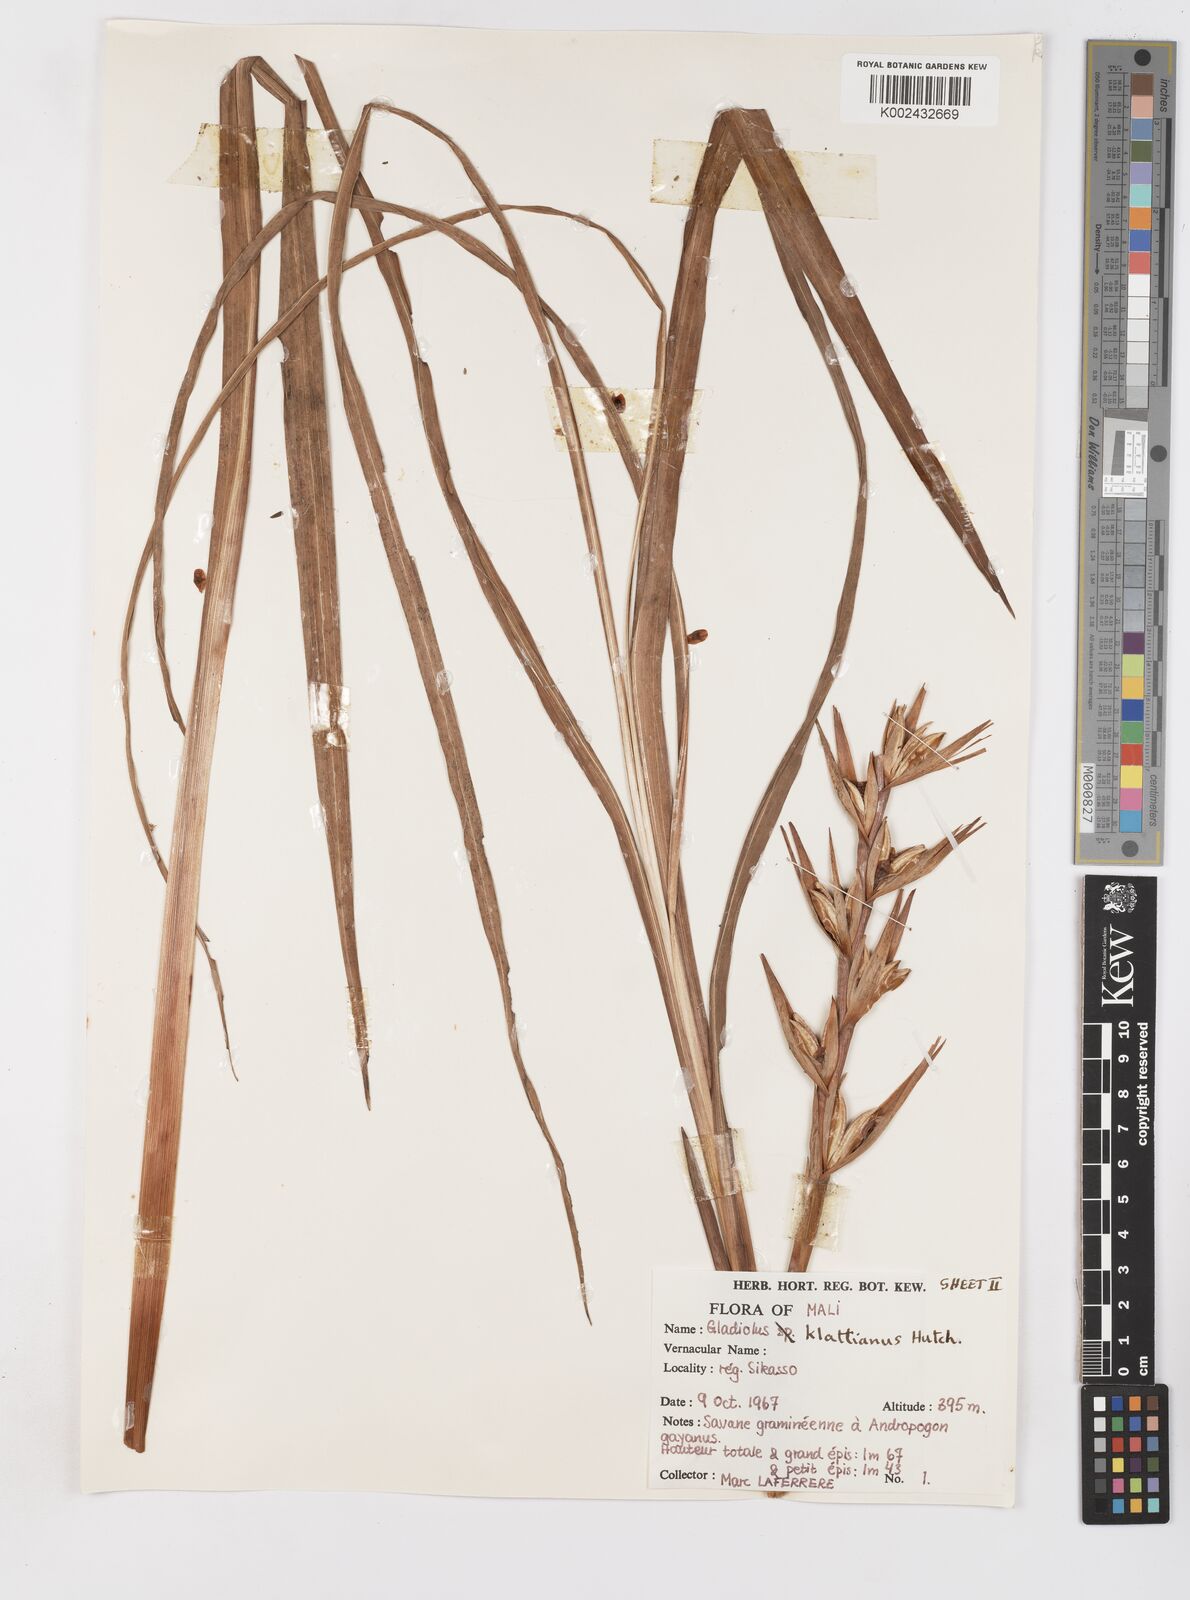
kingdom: Plantae
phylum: Tracheophyta
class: Liliopsida
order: Asparagales
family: Iridaceae
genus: Gladiolus
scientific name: Gladiolus gregarius
